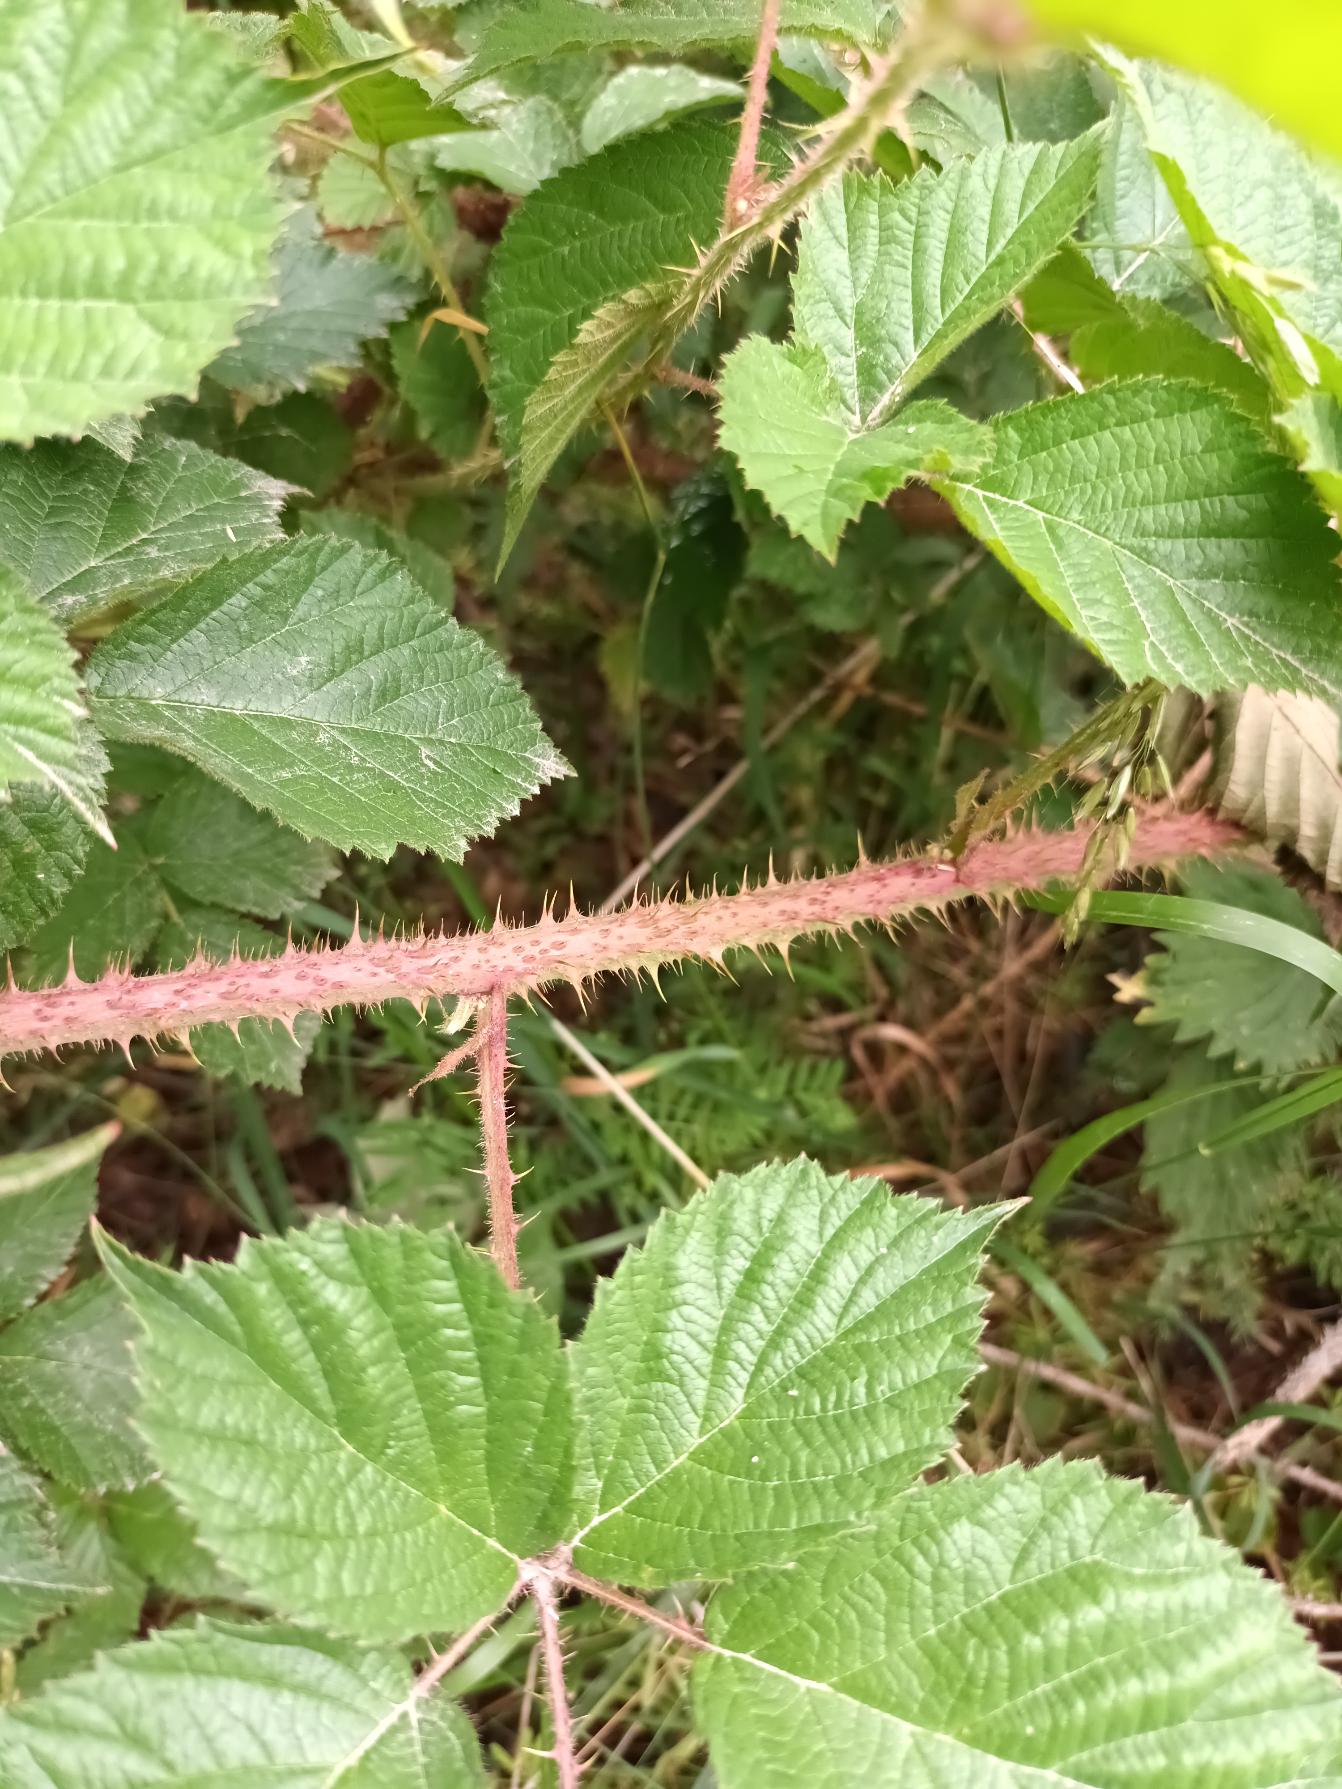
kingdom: Plantae
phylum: Tracheophyta
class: Magnoliopsida
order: Rosales
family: Rosaceae
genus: Rubus
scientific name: Rubus koehleri
